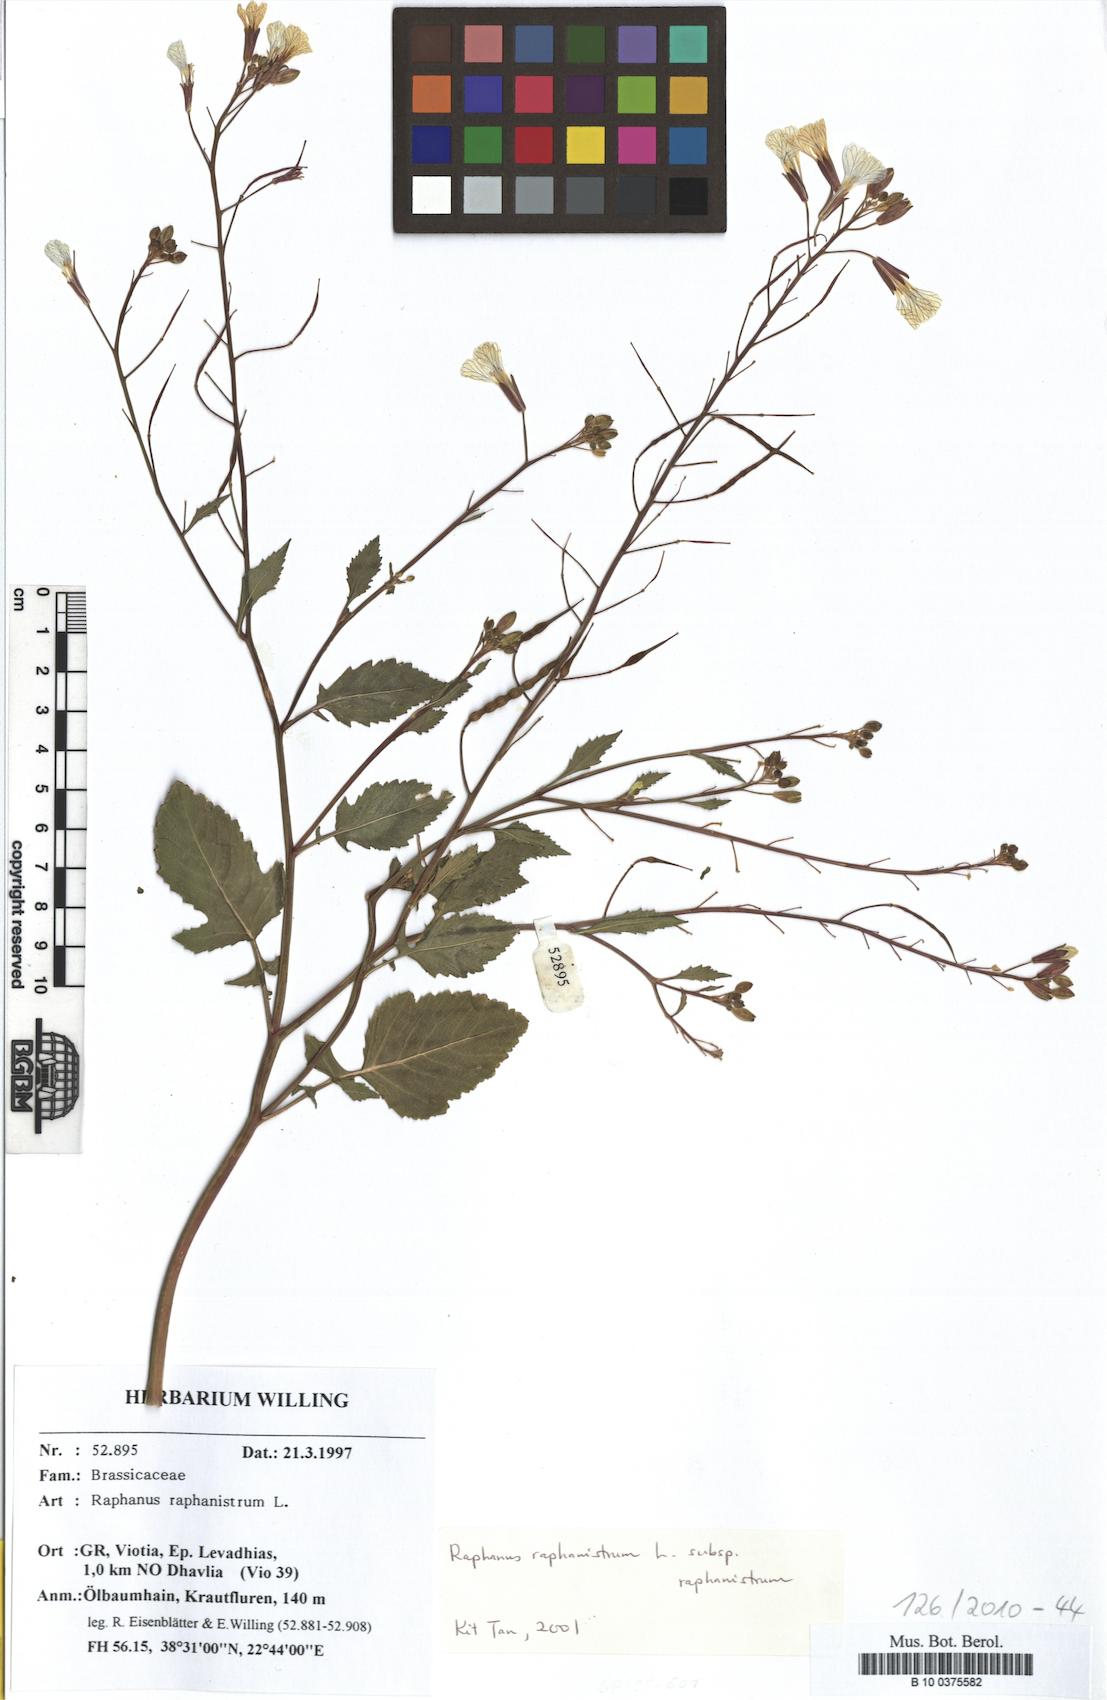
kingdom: Plantae
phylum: Tracheophyta
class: Magnoliopsida
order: Brassicales
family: Brassicaceae
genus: Raphanus
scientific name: Raphanus raphanistrum
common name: Wild radish
